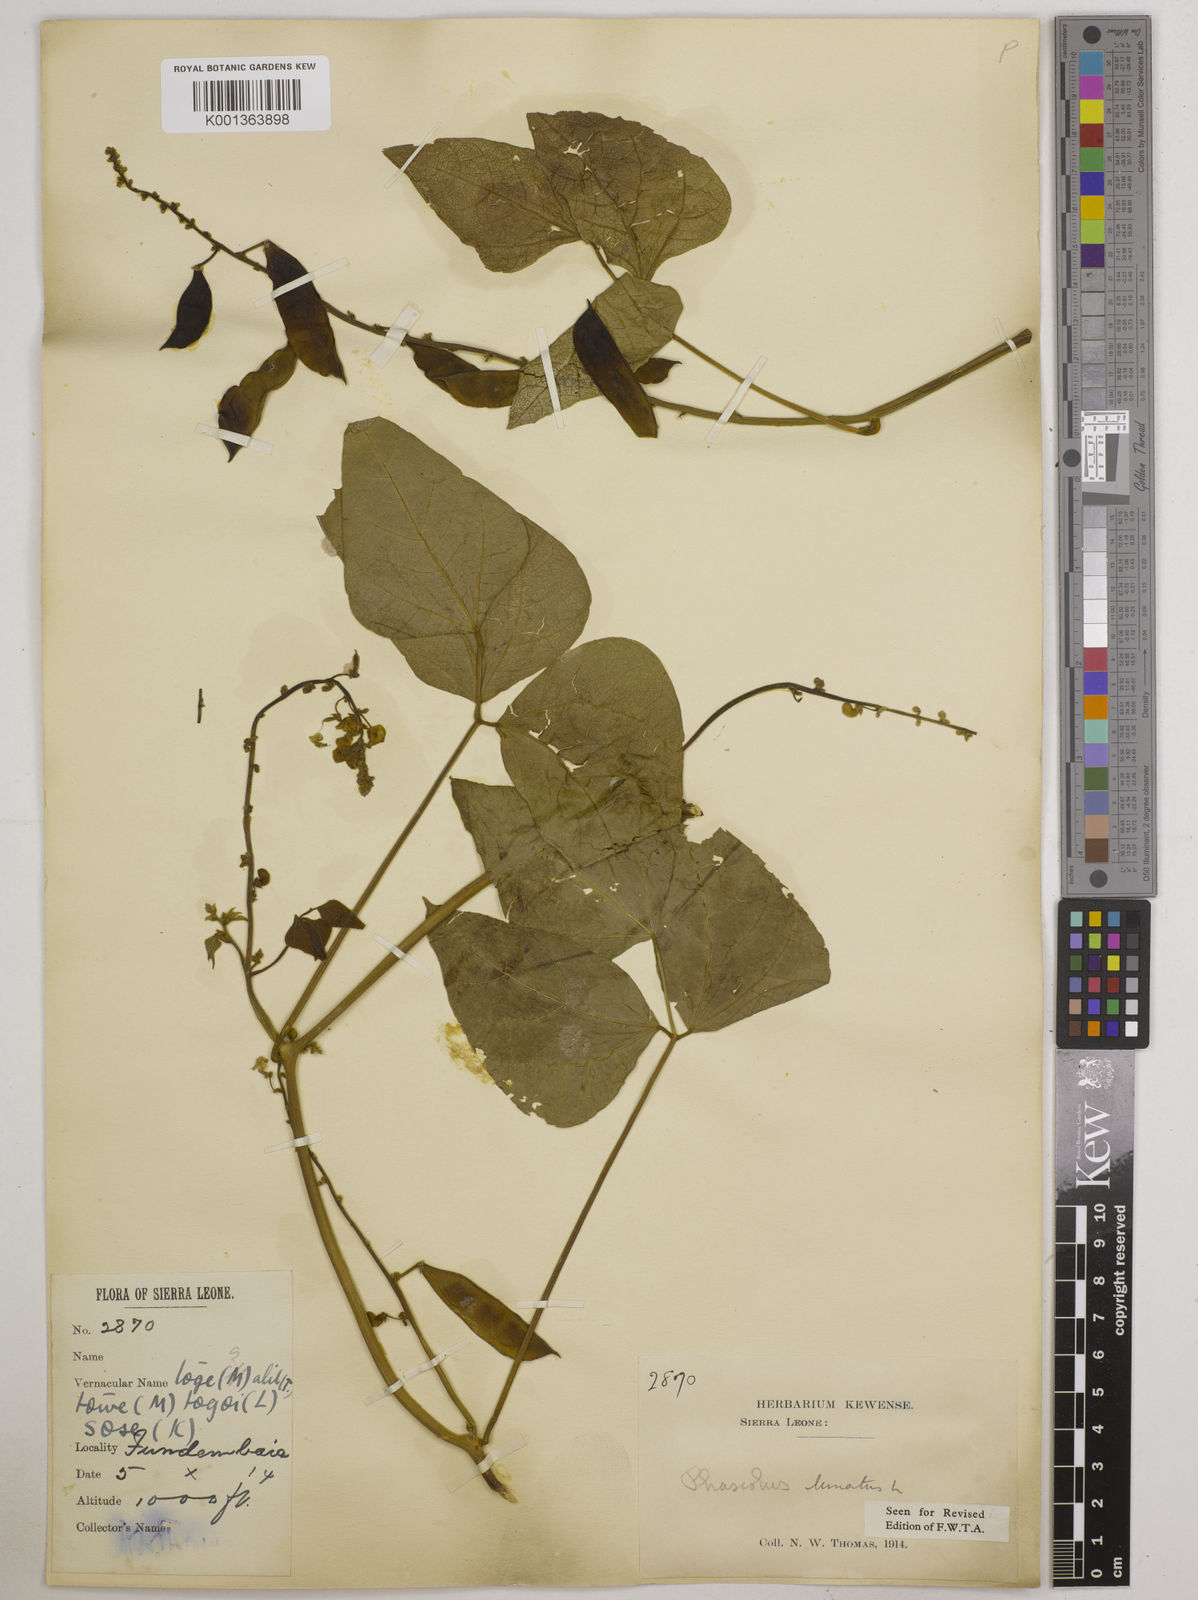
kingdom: Plantae
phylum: Tracheophyta
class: Magnoliopsida
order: Fabales
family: Fabaceae
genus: Phaseolus
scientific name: Phaseolus lunatus
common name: Sieva bean
